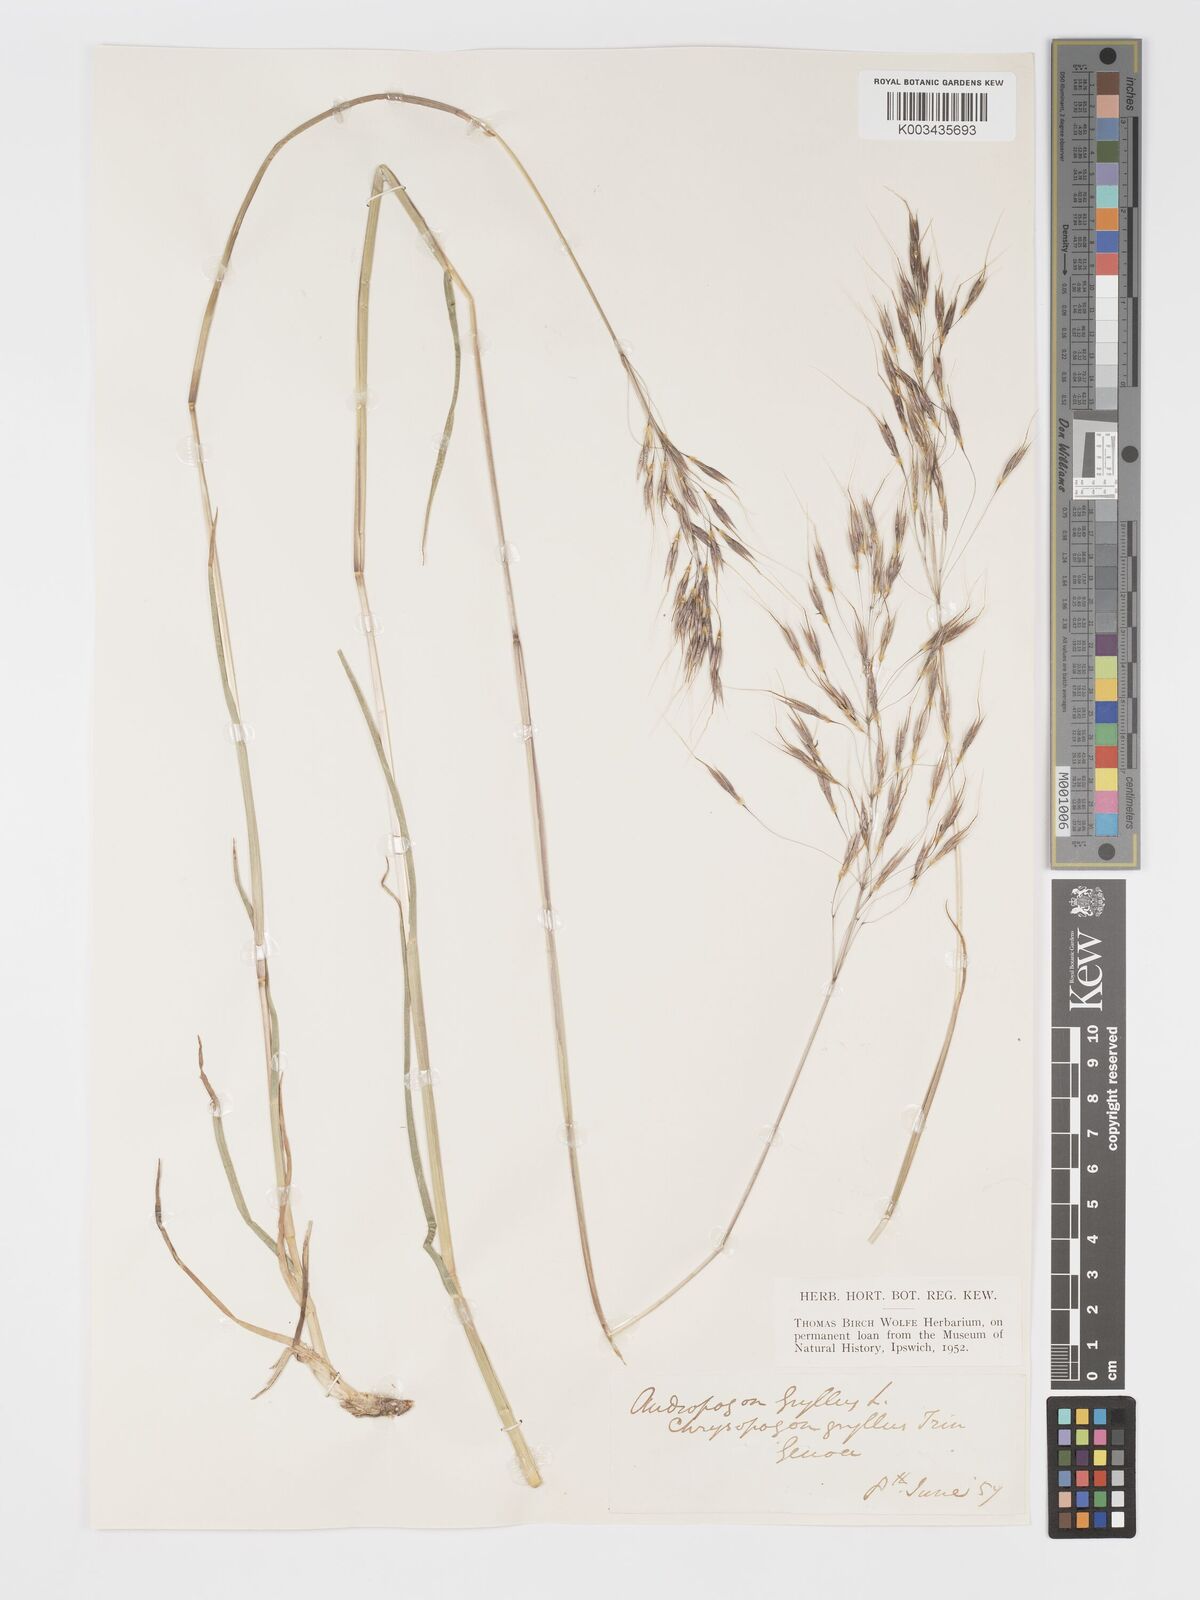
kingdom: Plantae
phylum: Tracheophyta
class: Liliopsida
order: Poales
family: Poaceae
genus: Chrysopogon
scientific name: Chrysopogon gryllus
